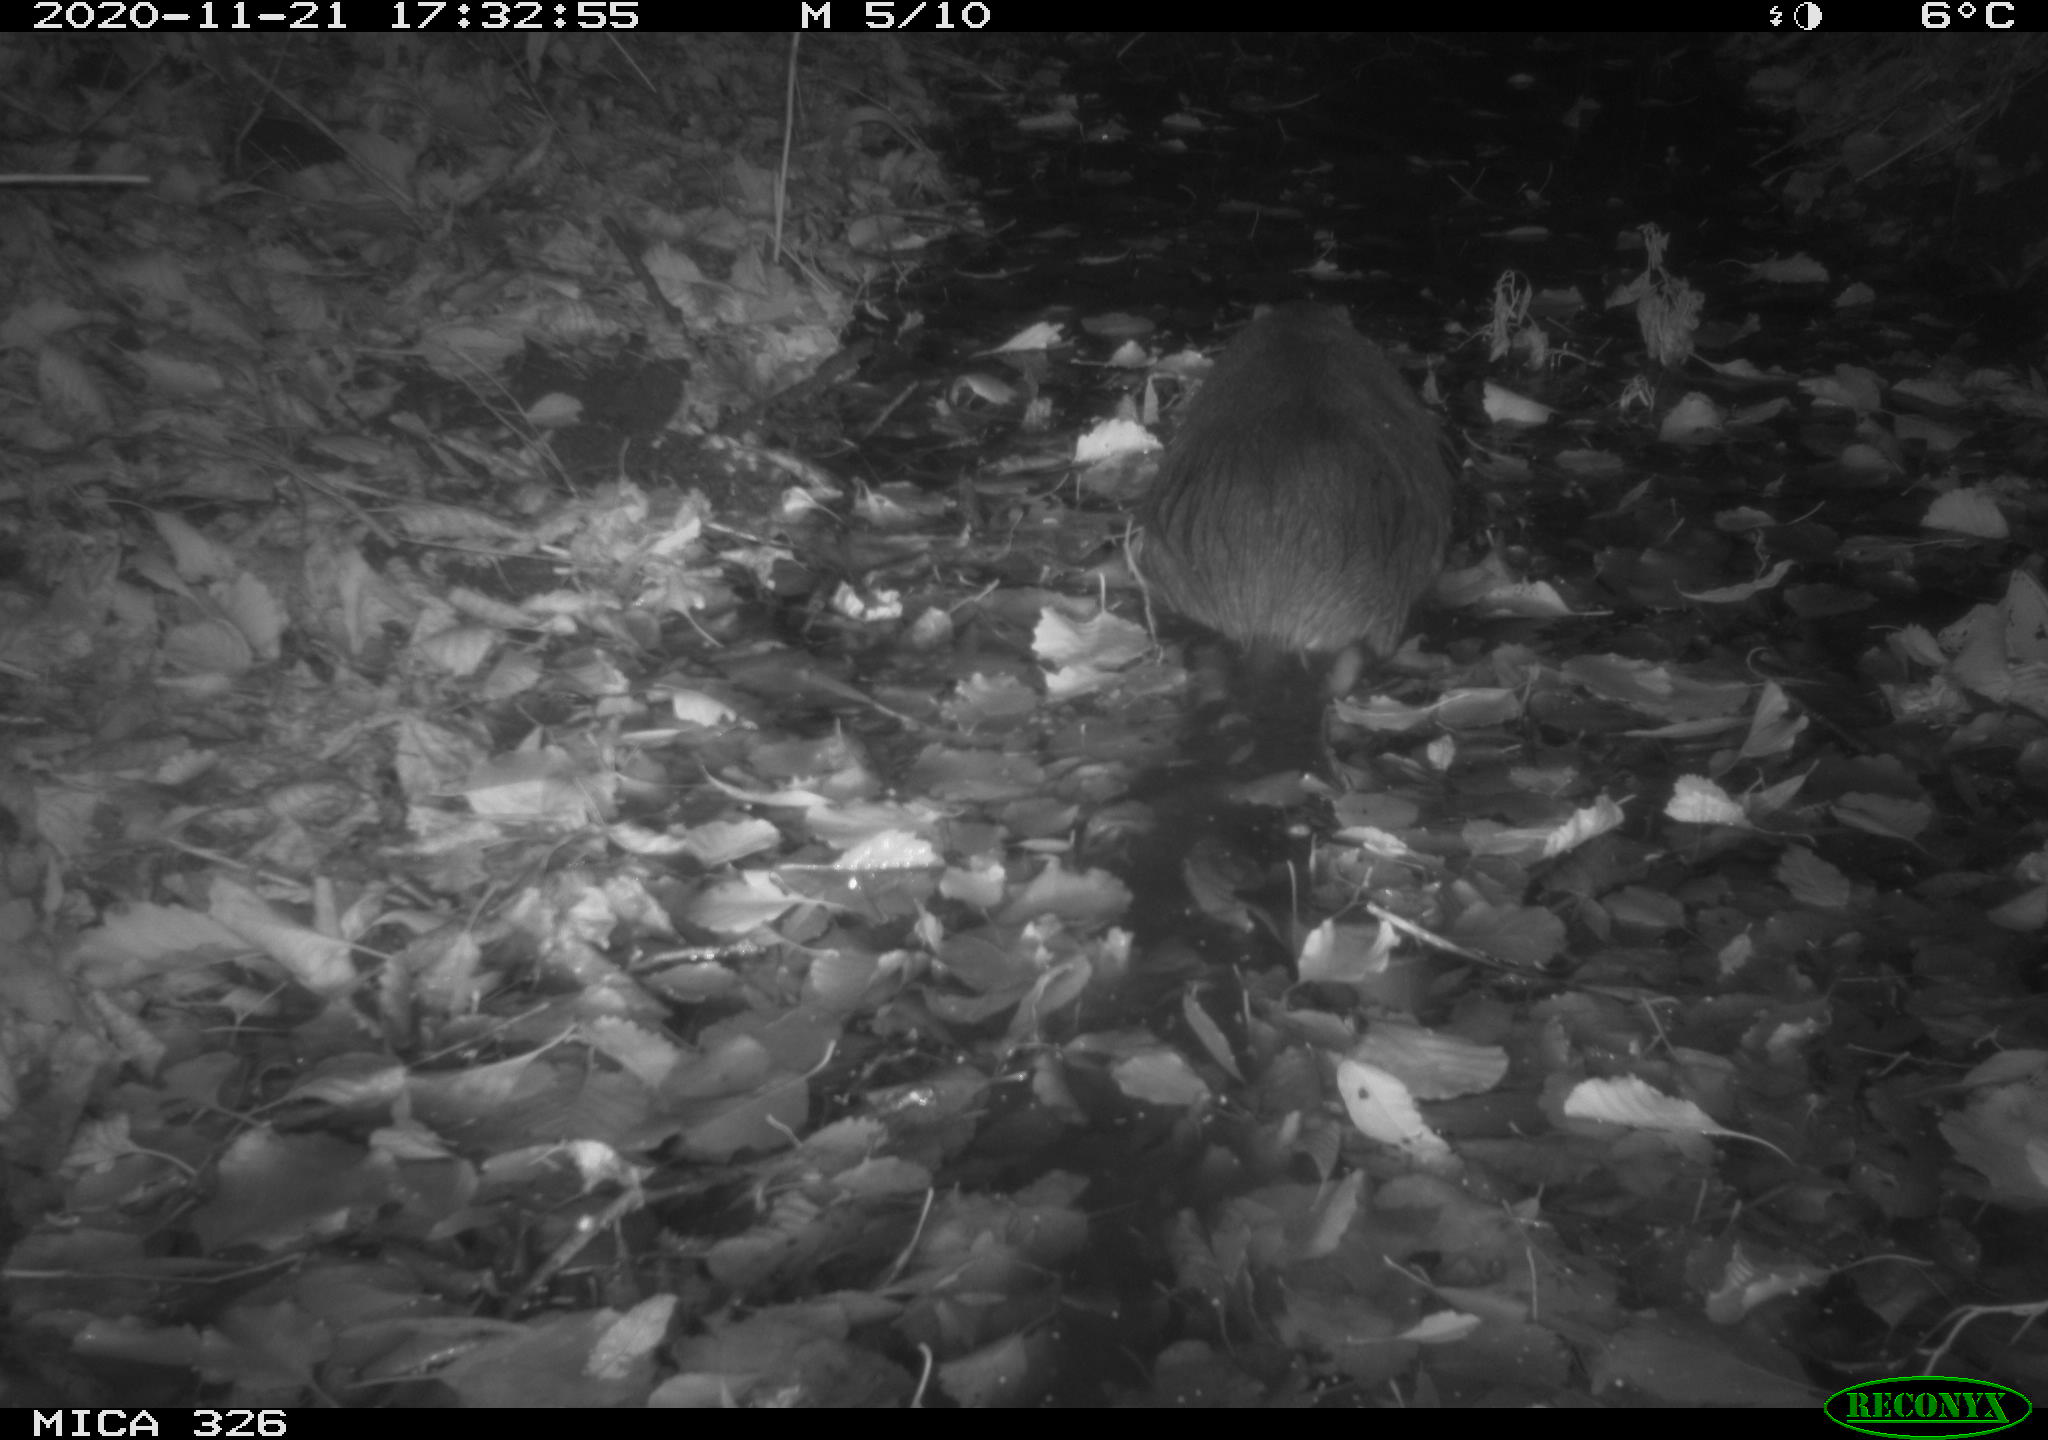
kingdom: Animalia
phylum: Chordata
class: Mammalia
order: Rodentia
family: Myocastoridae
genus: Myocastor
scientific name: Myocastor coypus
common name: Coypu
